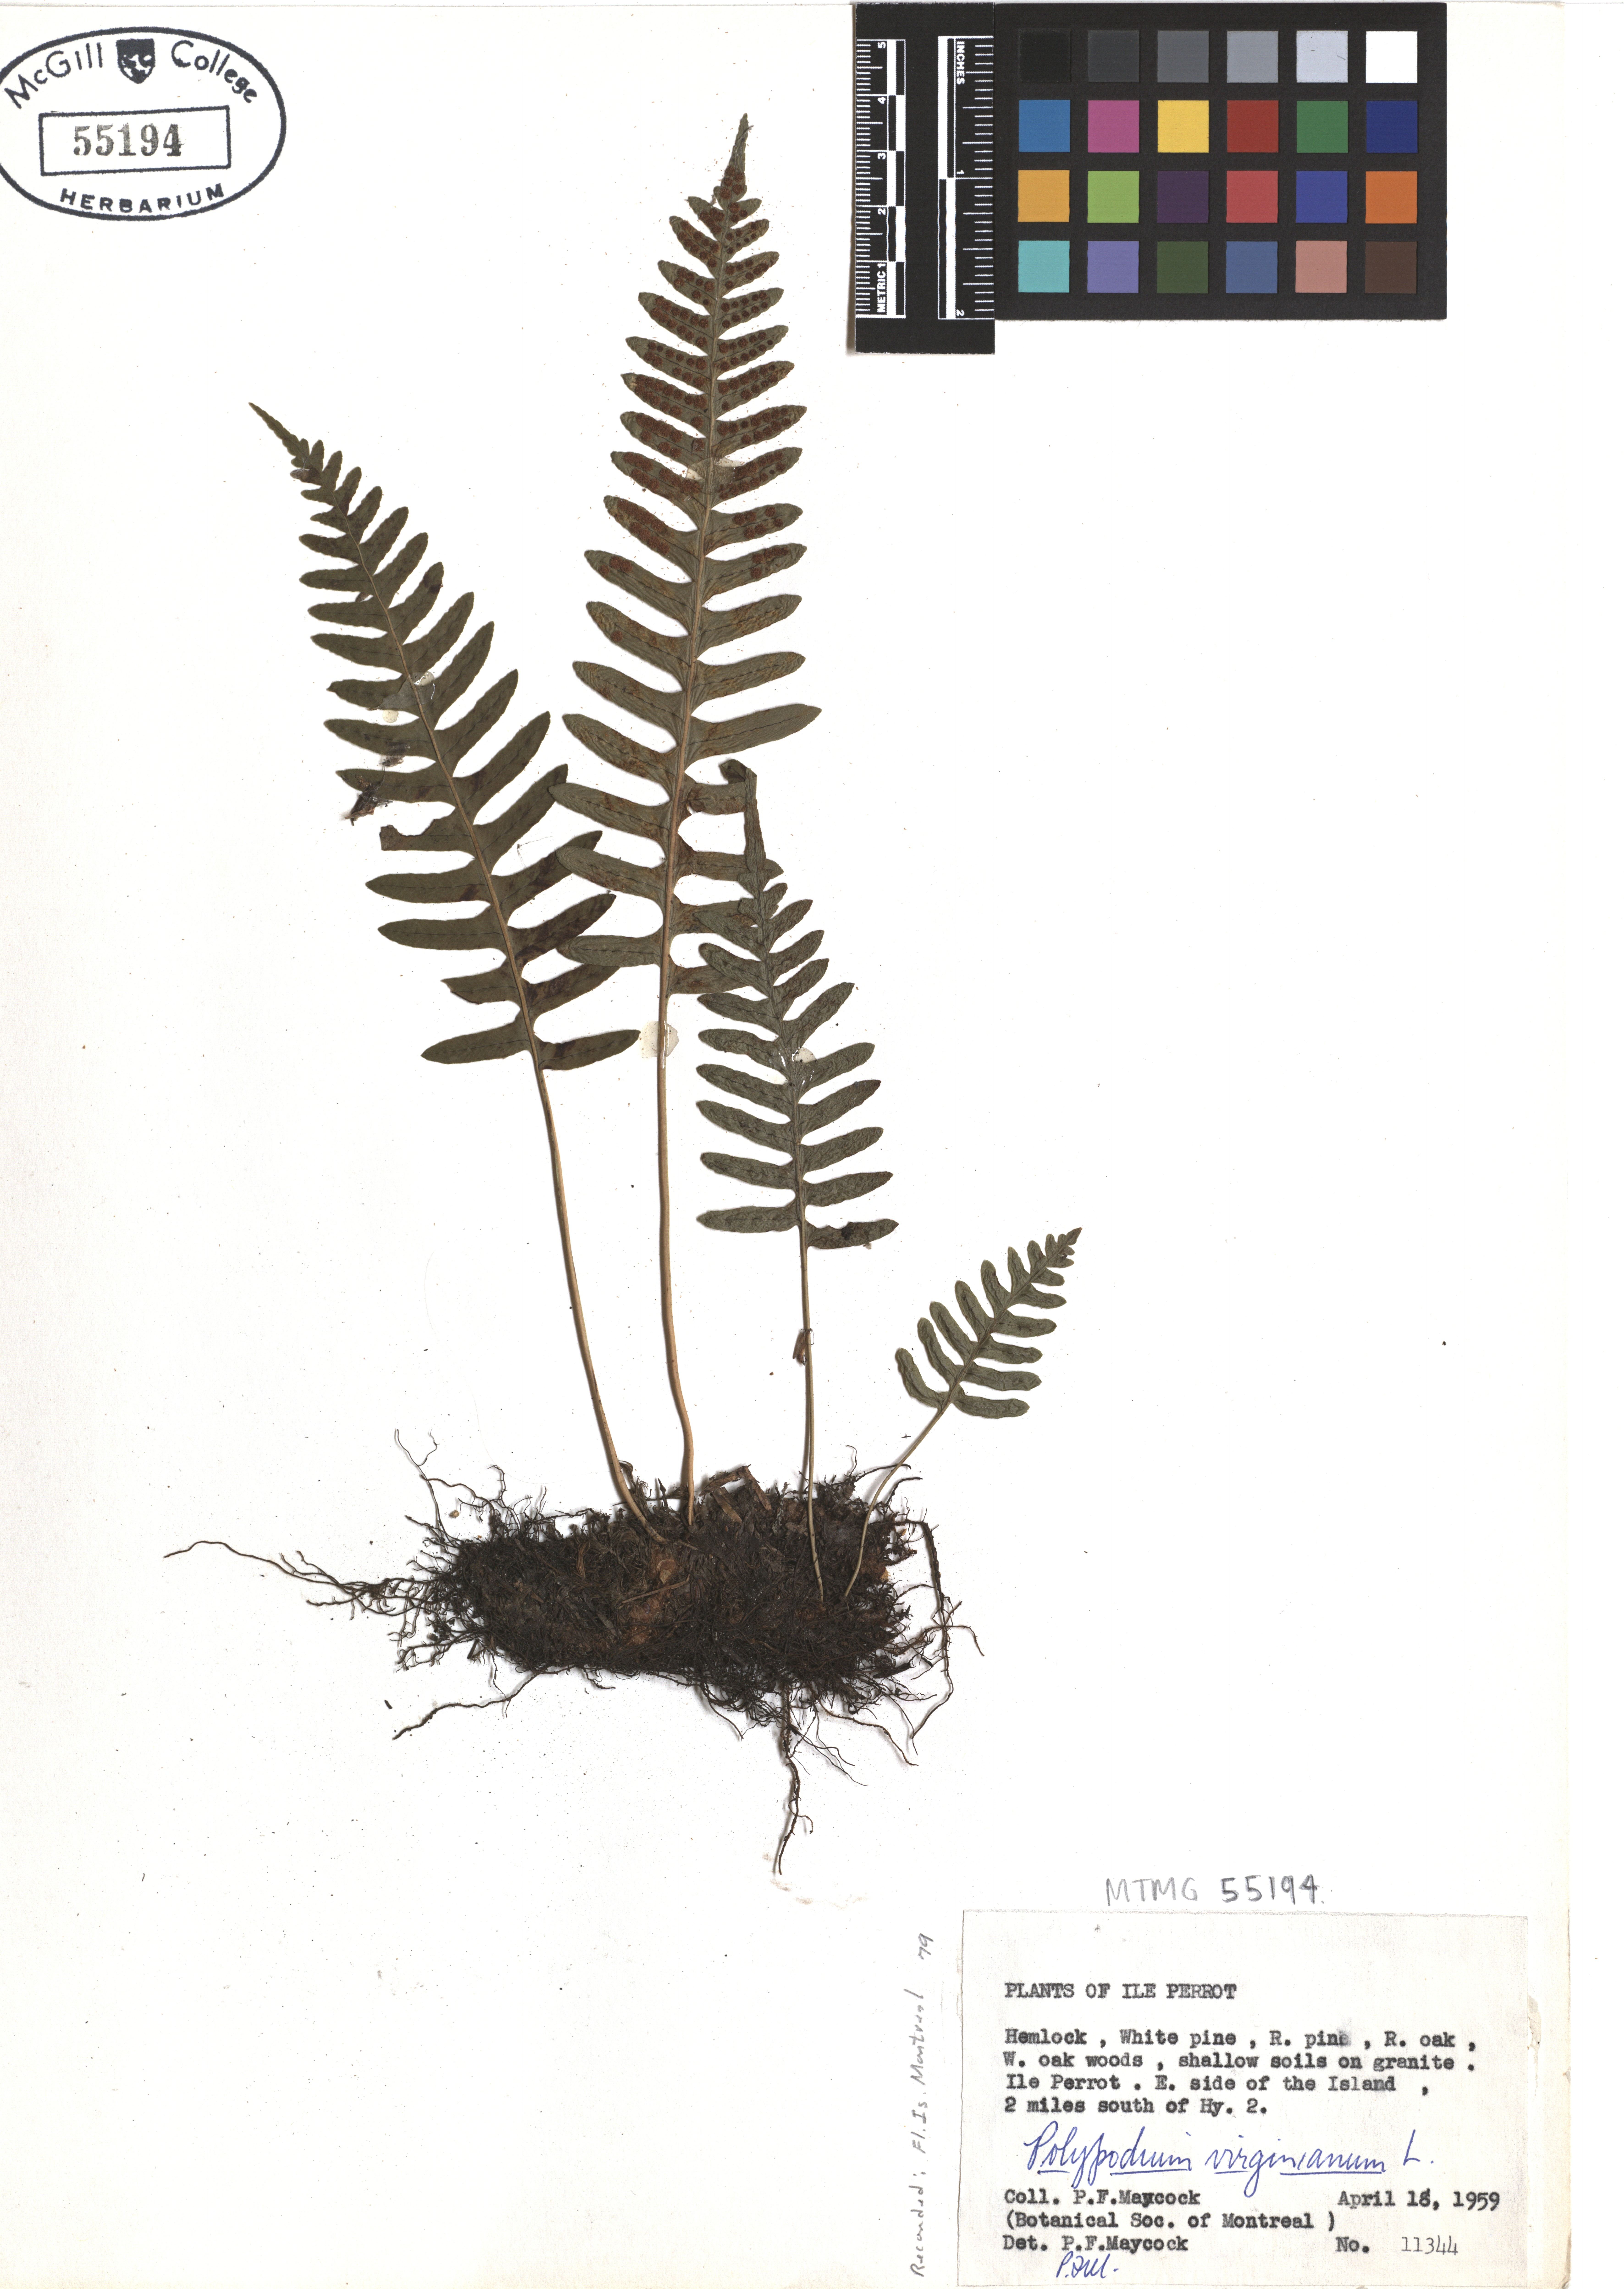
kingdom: Plantae
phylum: Tracheophyta
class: Polypodiopsida
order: Polypodiales
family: Polypodiaceae
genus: Polypodium
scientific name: Polypodium virginianum
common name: American wall fern
